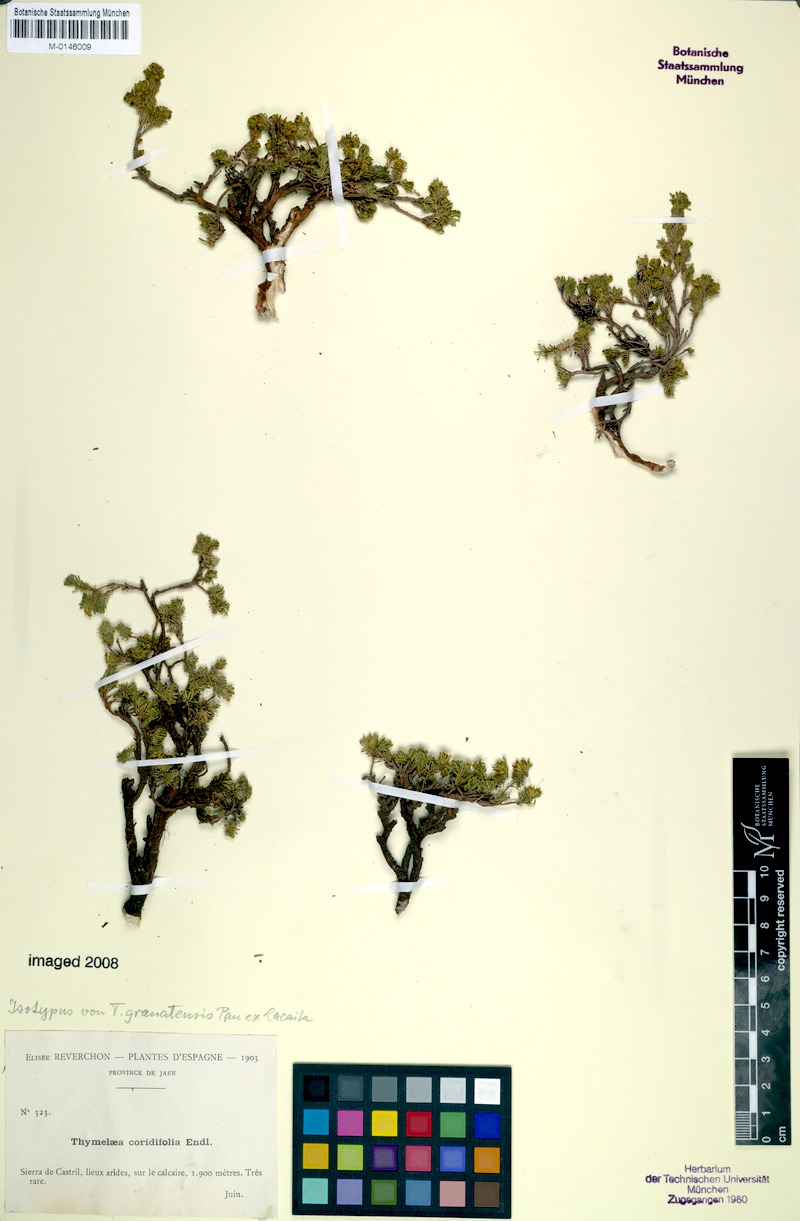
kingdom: Plantae
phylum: Tracheophyta
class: Magnoliopsida
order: Malvales
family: Thymelaeaceae
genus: Thymelaea
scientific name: Thymelaea granatensis
